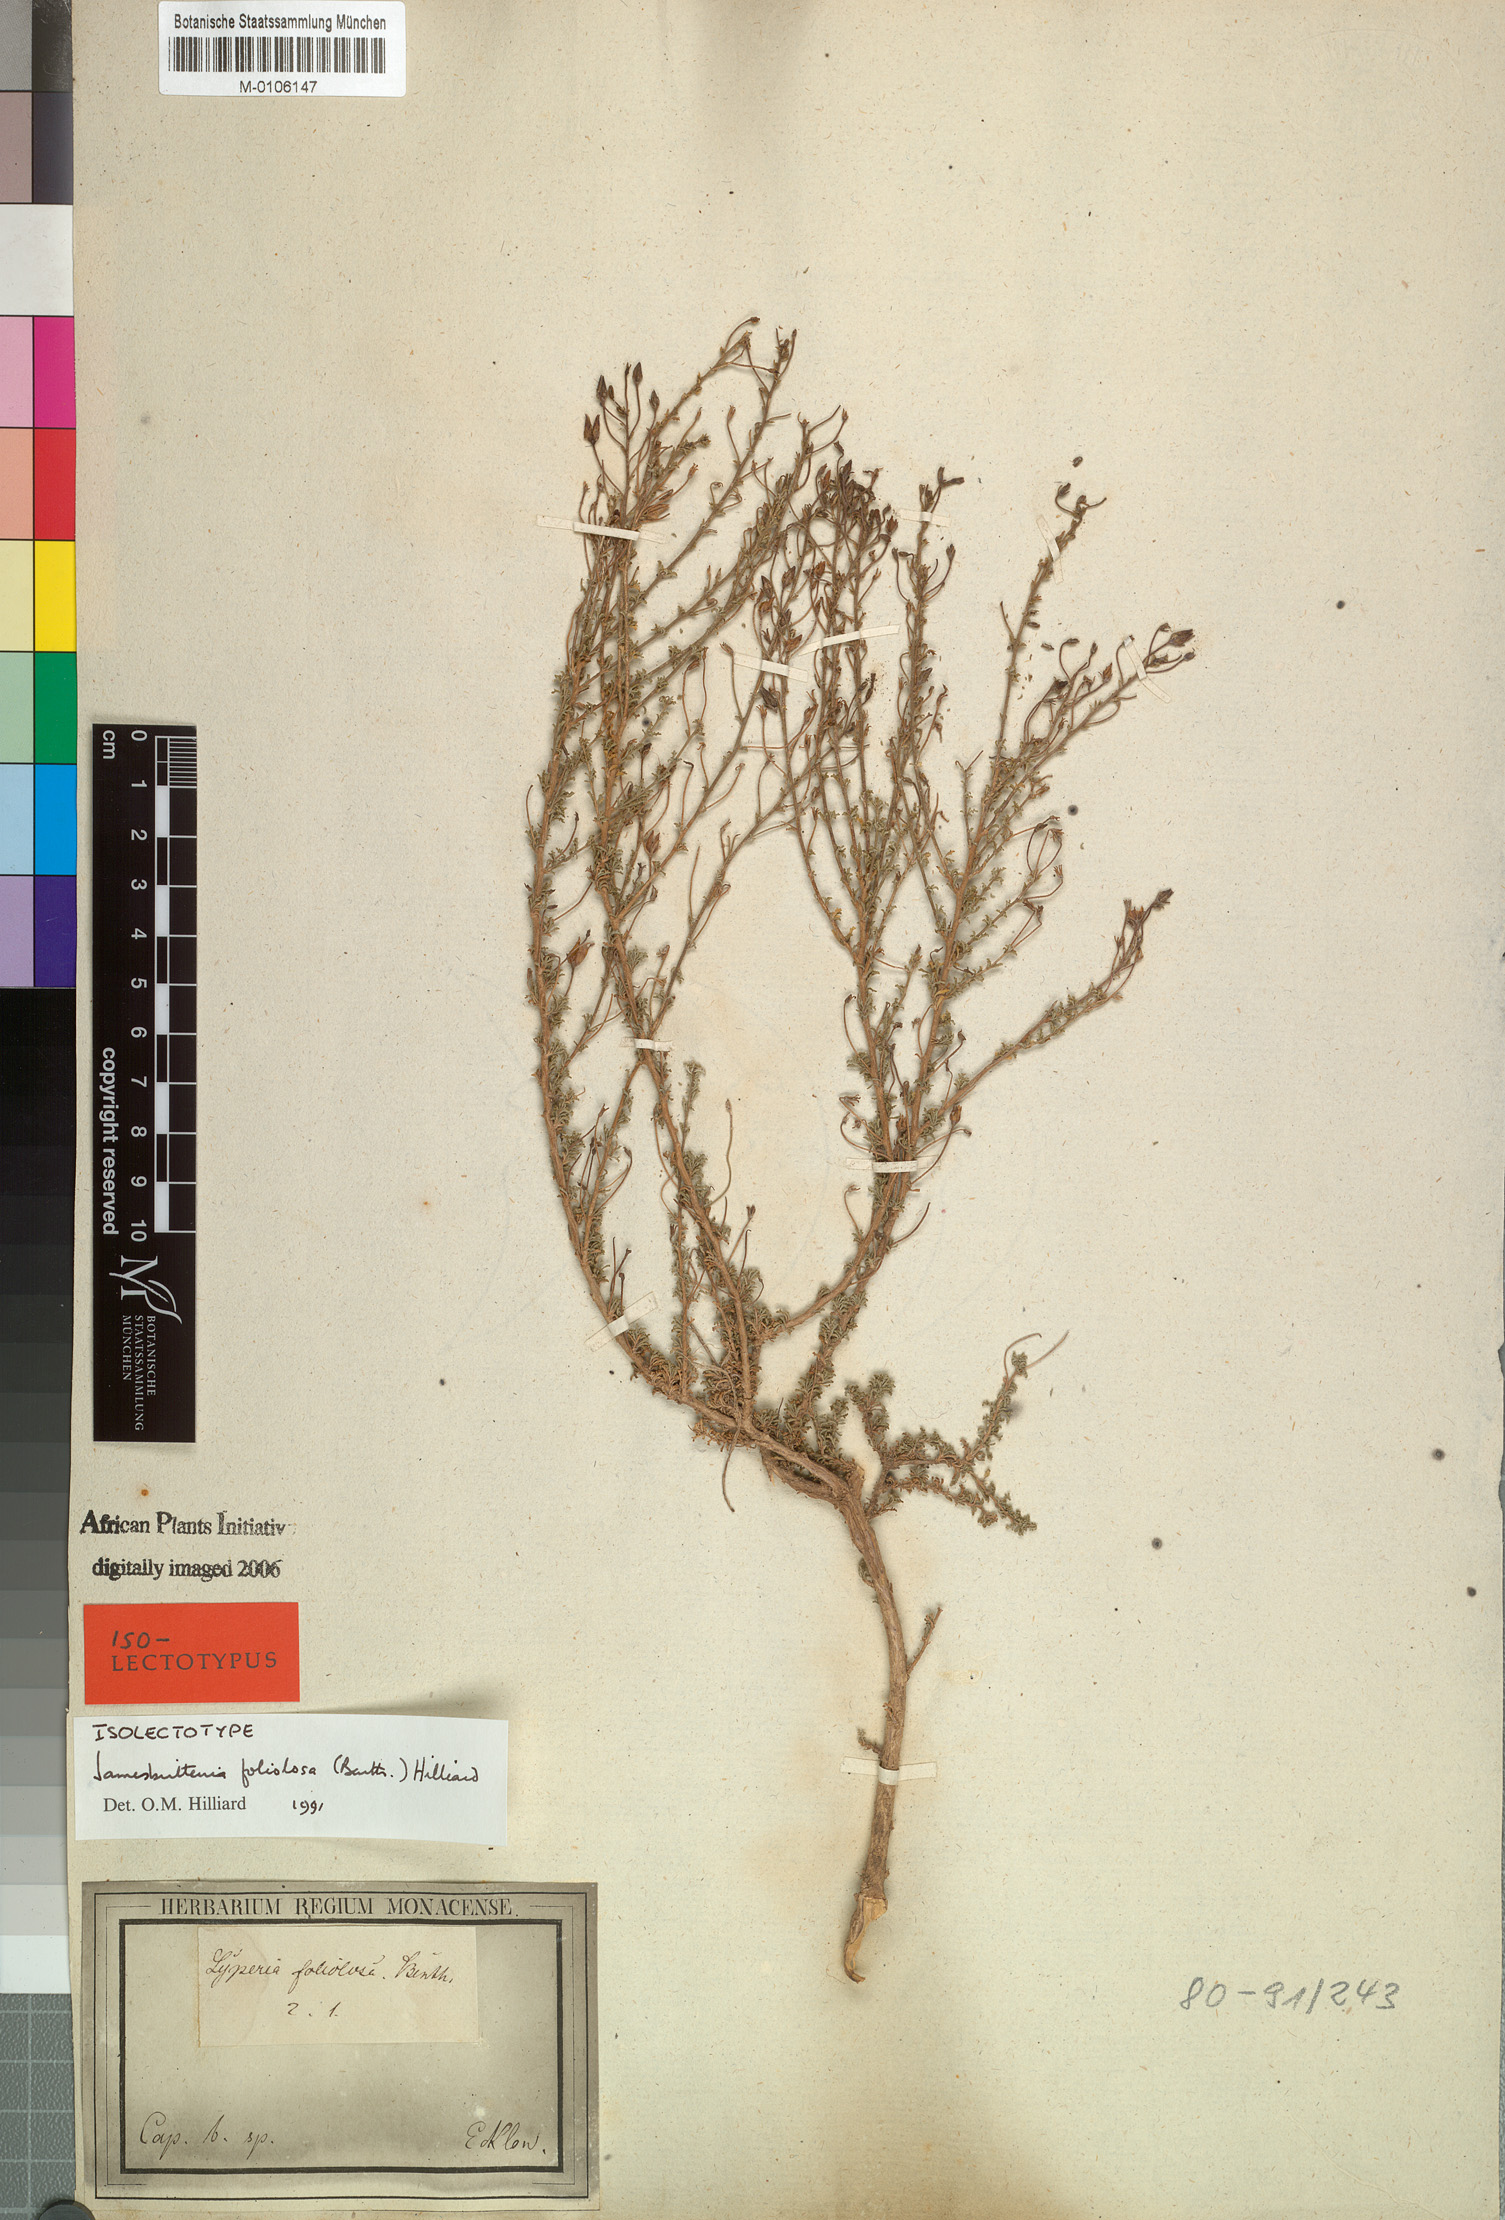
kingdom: Plantae
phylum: Tracheophyta
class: Magnoliopsida
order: Lamiales
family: Scrophulariaceae
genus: Jamesbrittenia
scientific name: Jamesbrittenia foliolosa
